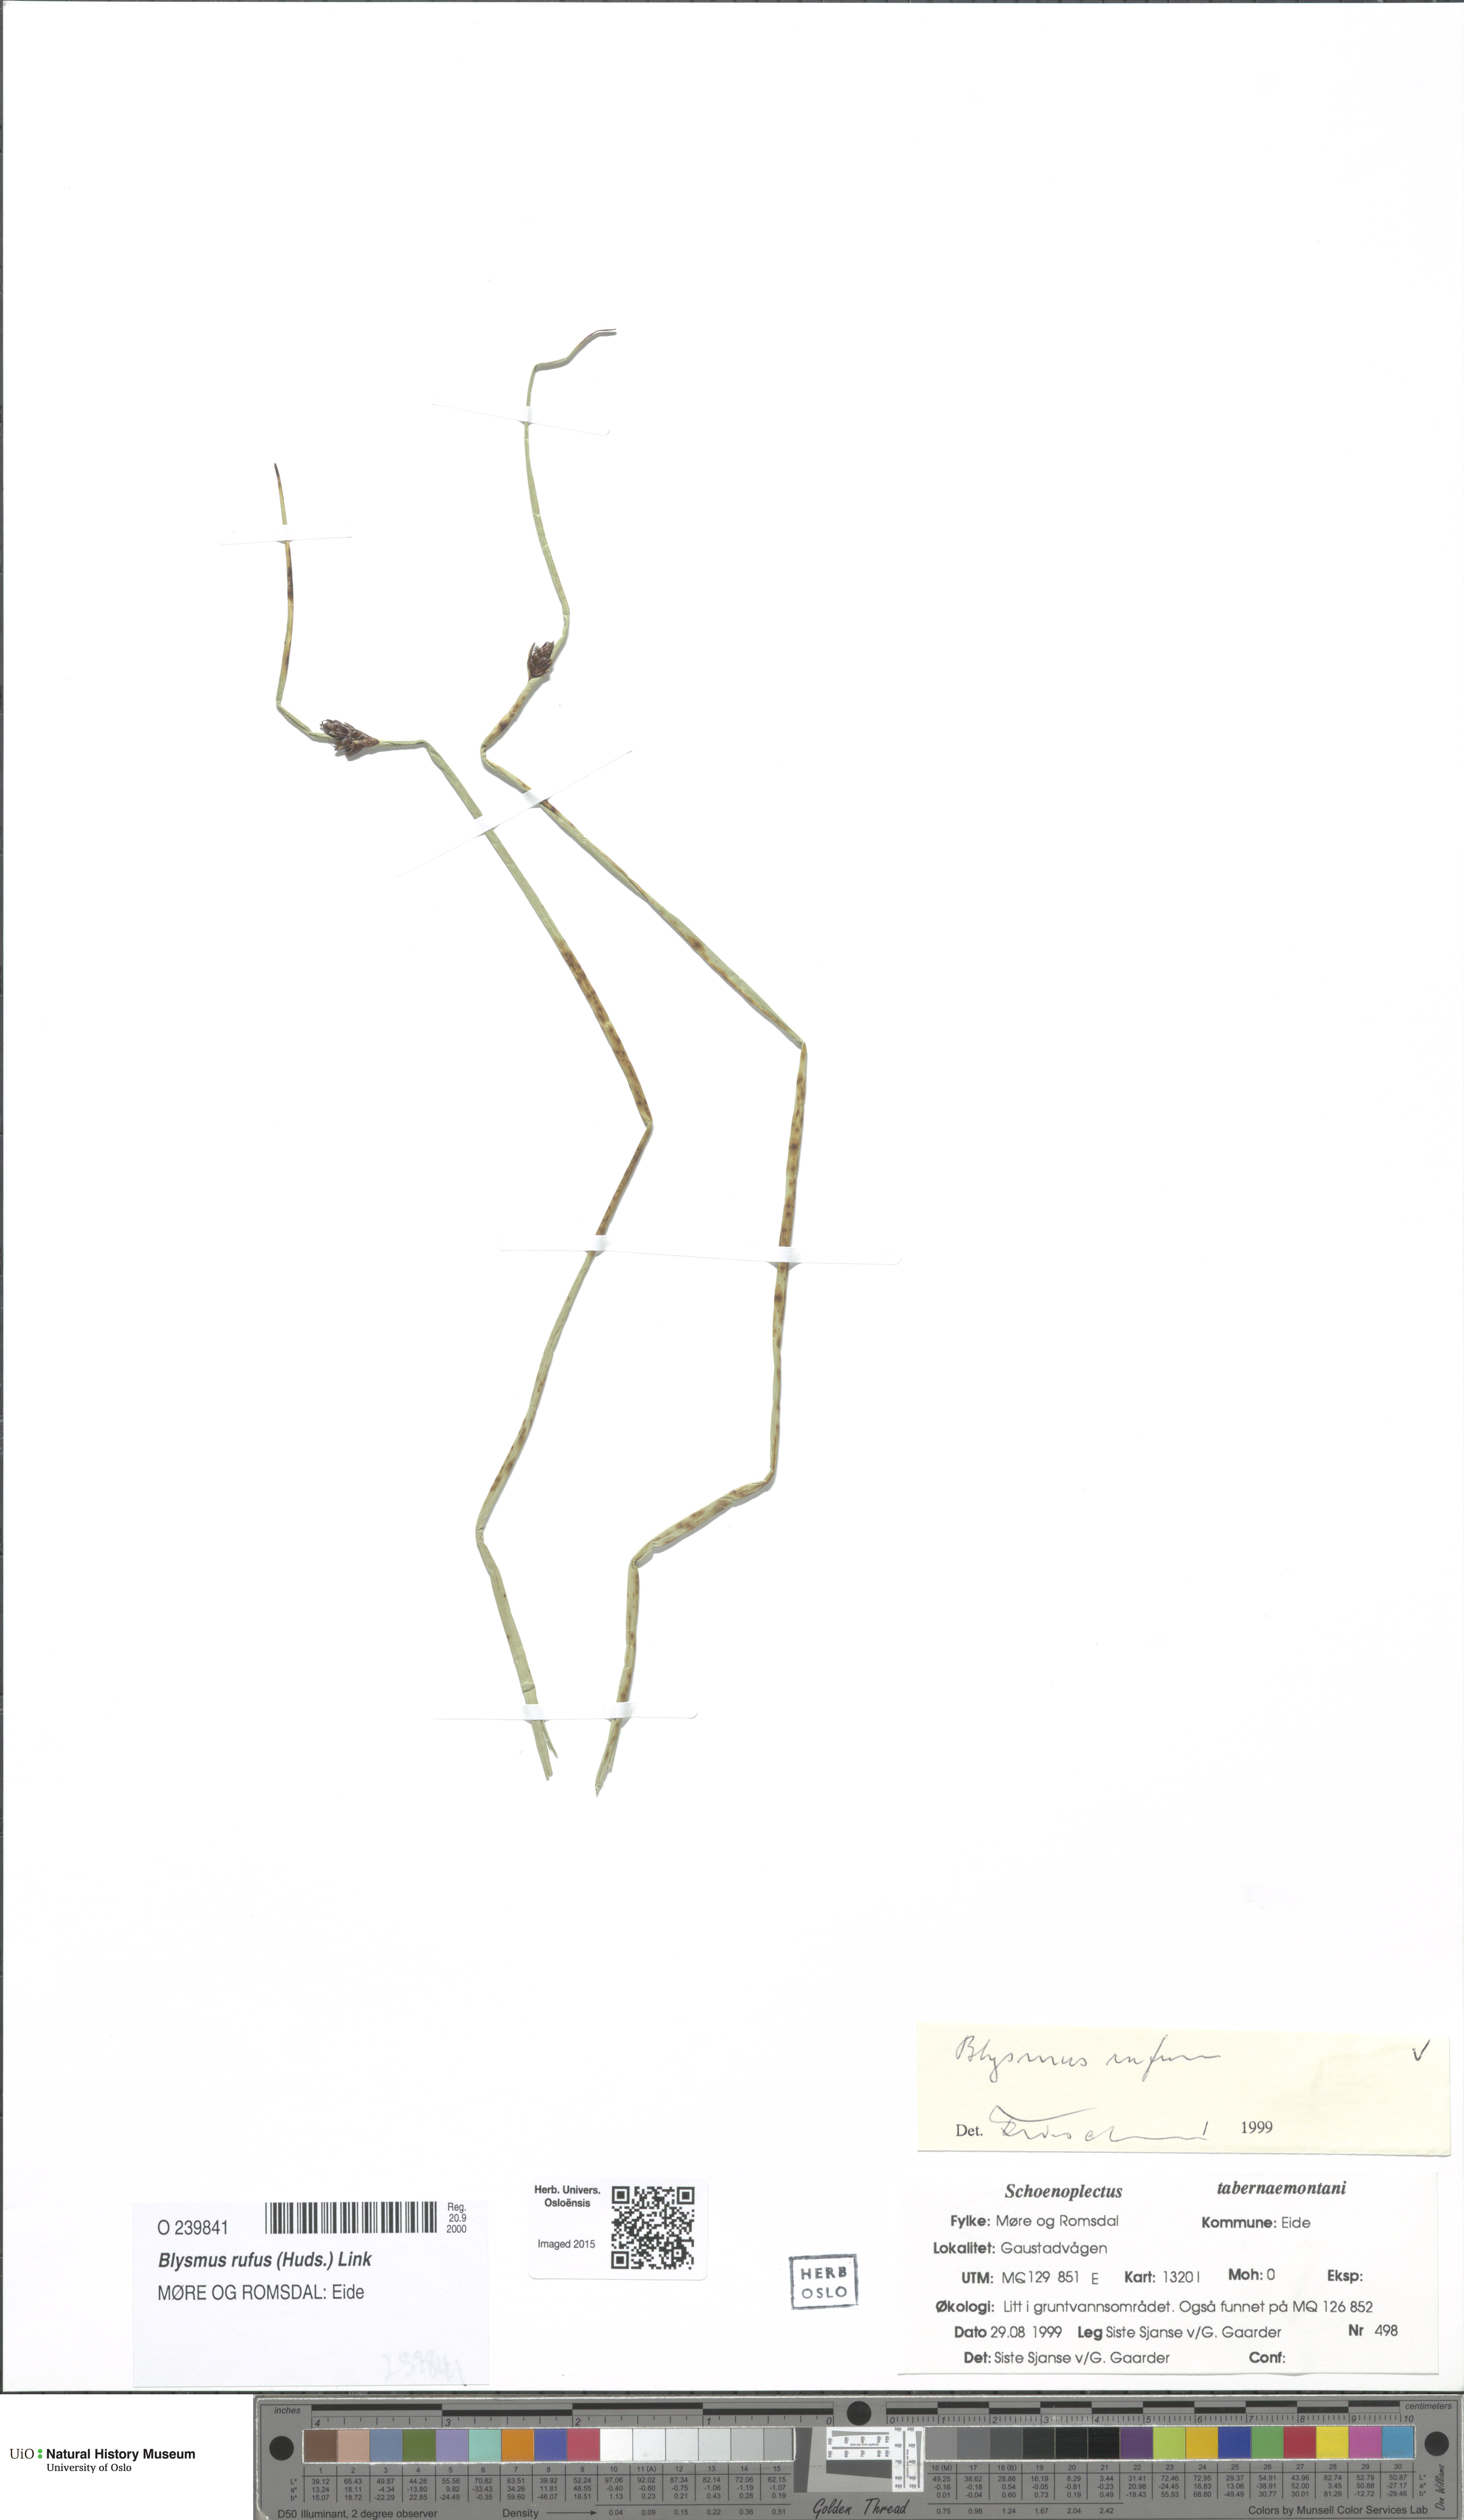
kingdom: Plantae
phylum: Tracheophyta
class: Liliopsida
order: Poales
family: Cyperaceae
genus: Blysmus
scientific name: Blysmus rufus
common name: Saltmarsh flat-sedge
